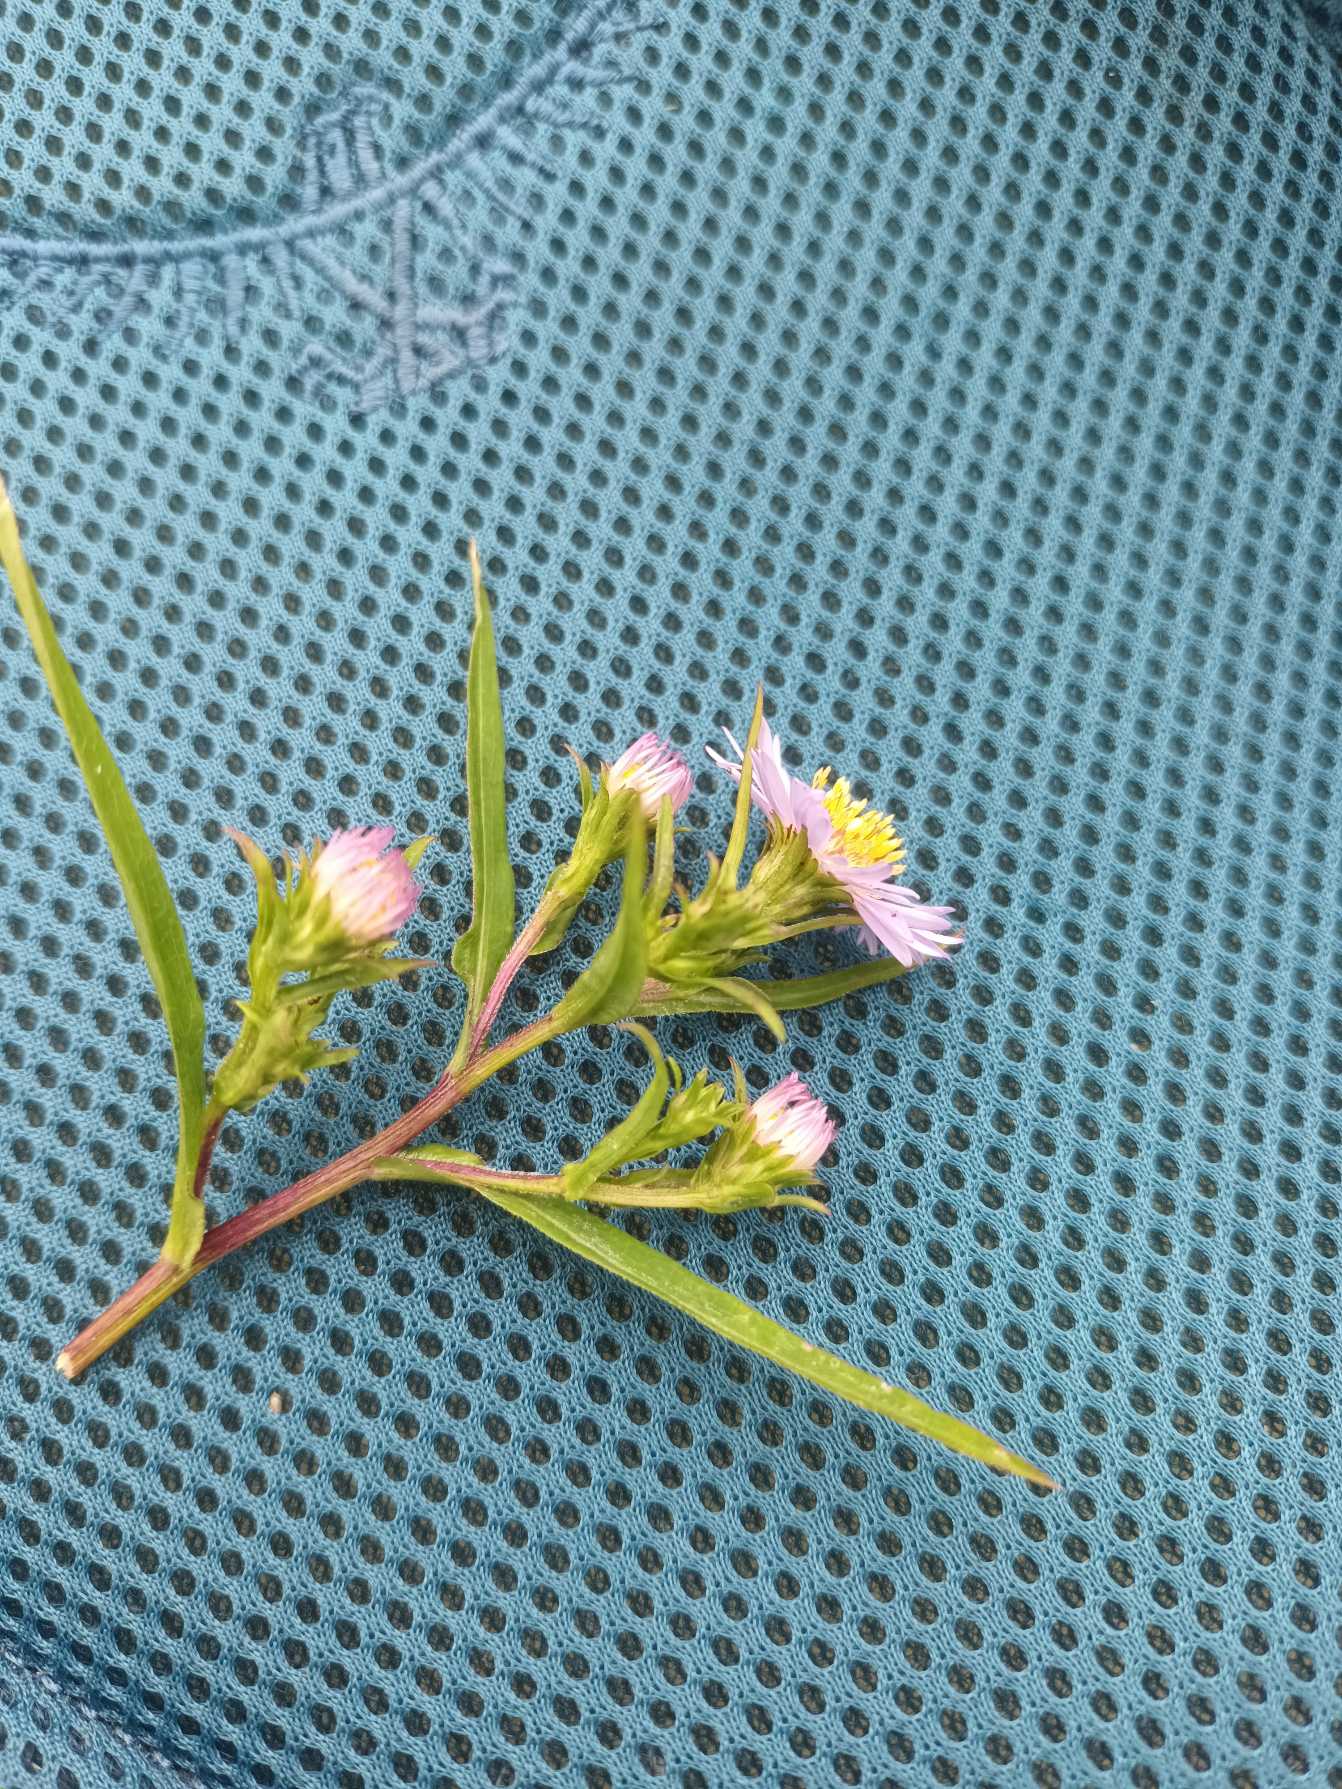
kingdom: Plantae
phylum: Tracheophyta
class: Magnoliopsida
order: Asterales
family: Asteraceae
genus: Symphyotrichum
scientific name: Symphyotrichum novi-belgii
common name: Nybelgisk asters
